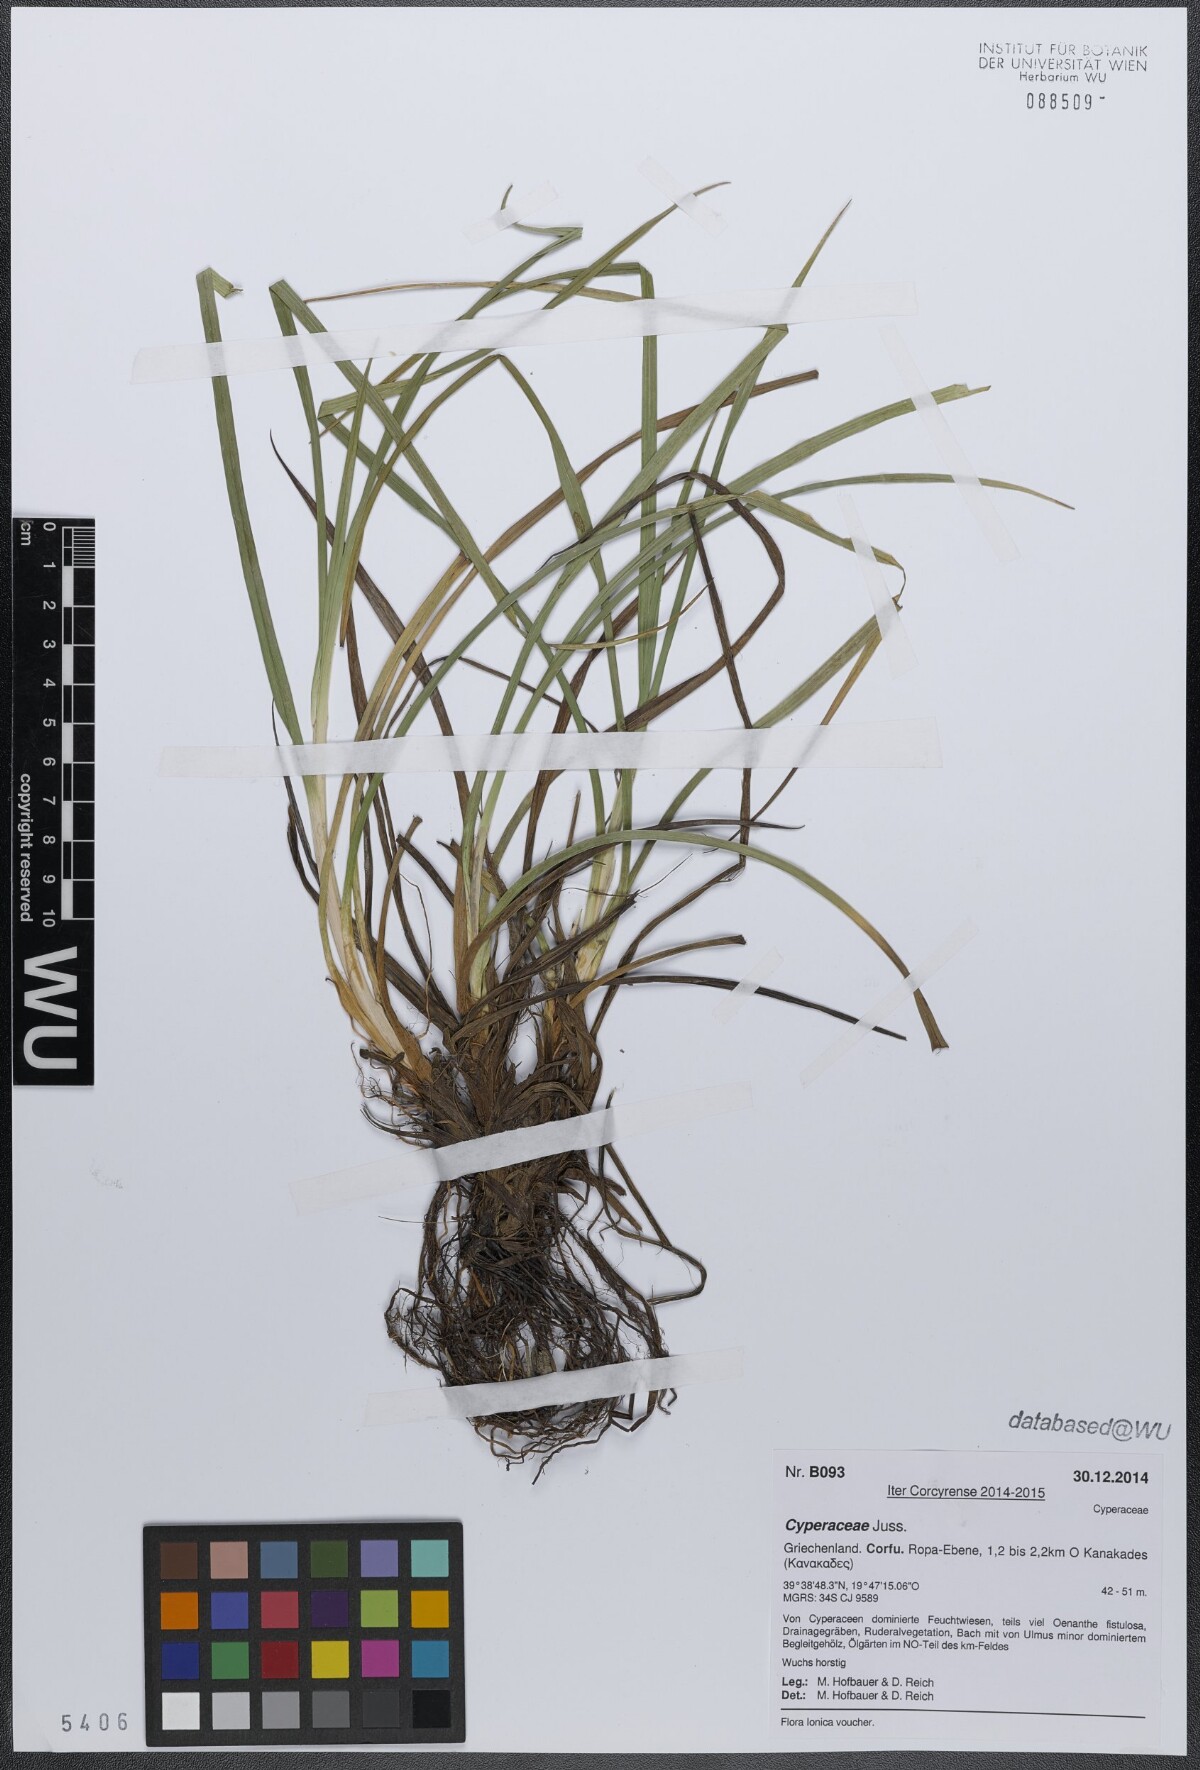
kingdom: Plantae
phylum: Tracheophyta
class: Liliopsida
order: Poales
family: Cyperaceae
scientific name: Cyperaceae
